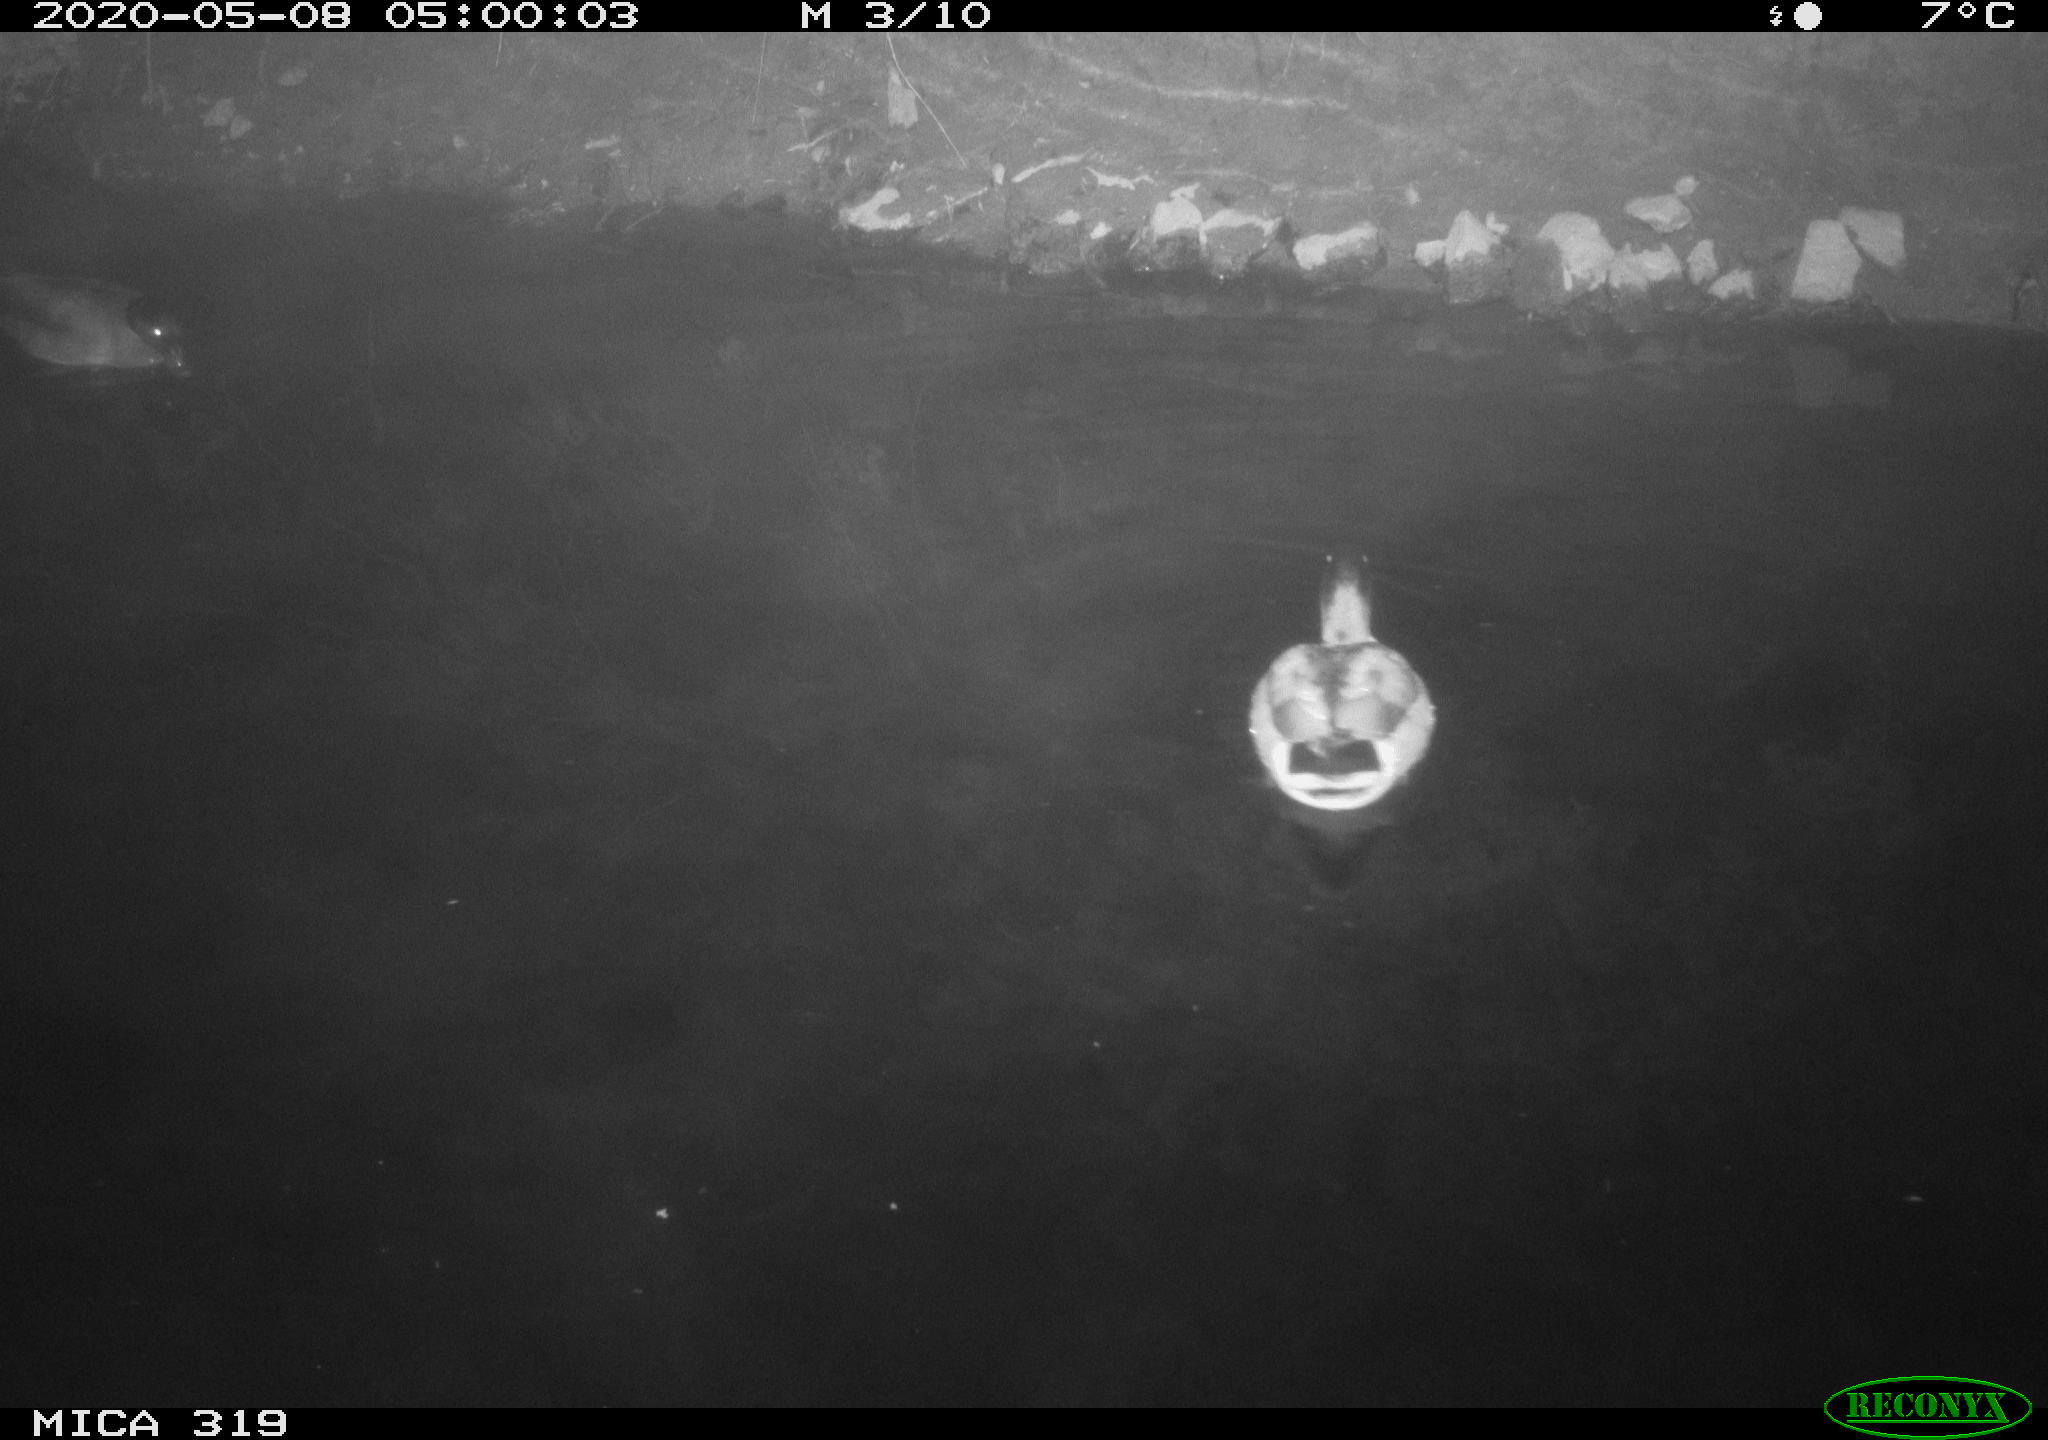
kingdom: Animalia
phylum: Chordata
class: Aves
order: Anseriformes
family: Anatidae
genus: Anas
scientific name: Anas platyrhynchos
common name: Mallard
